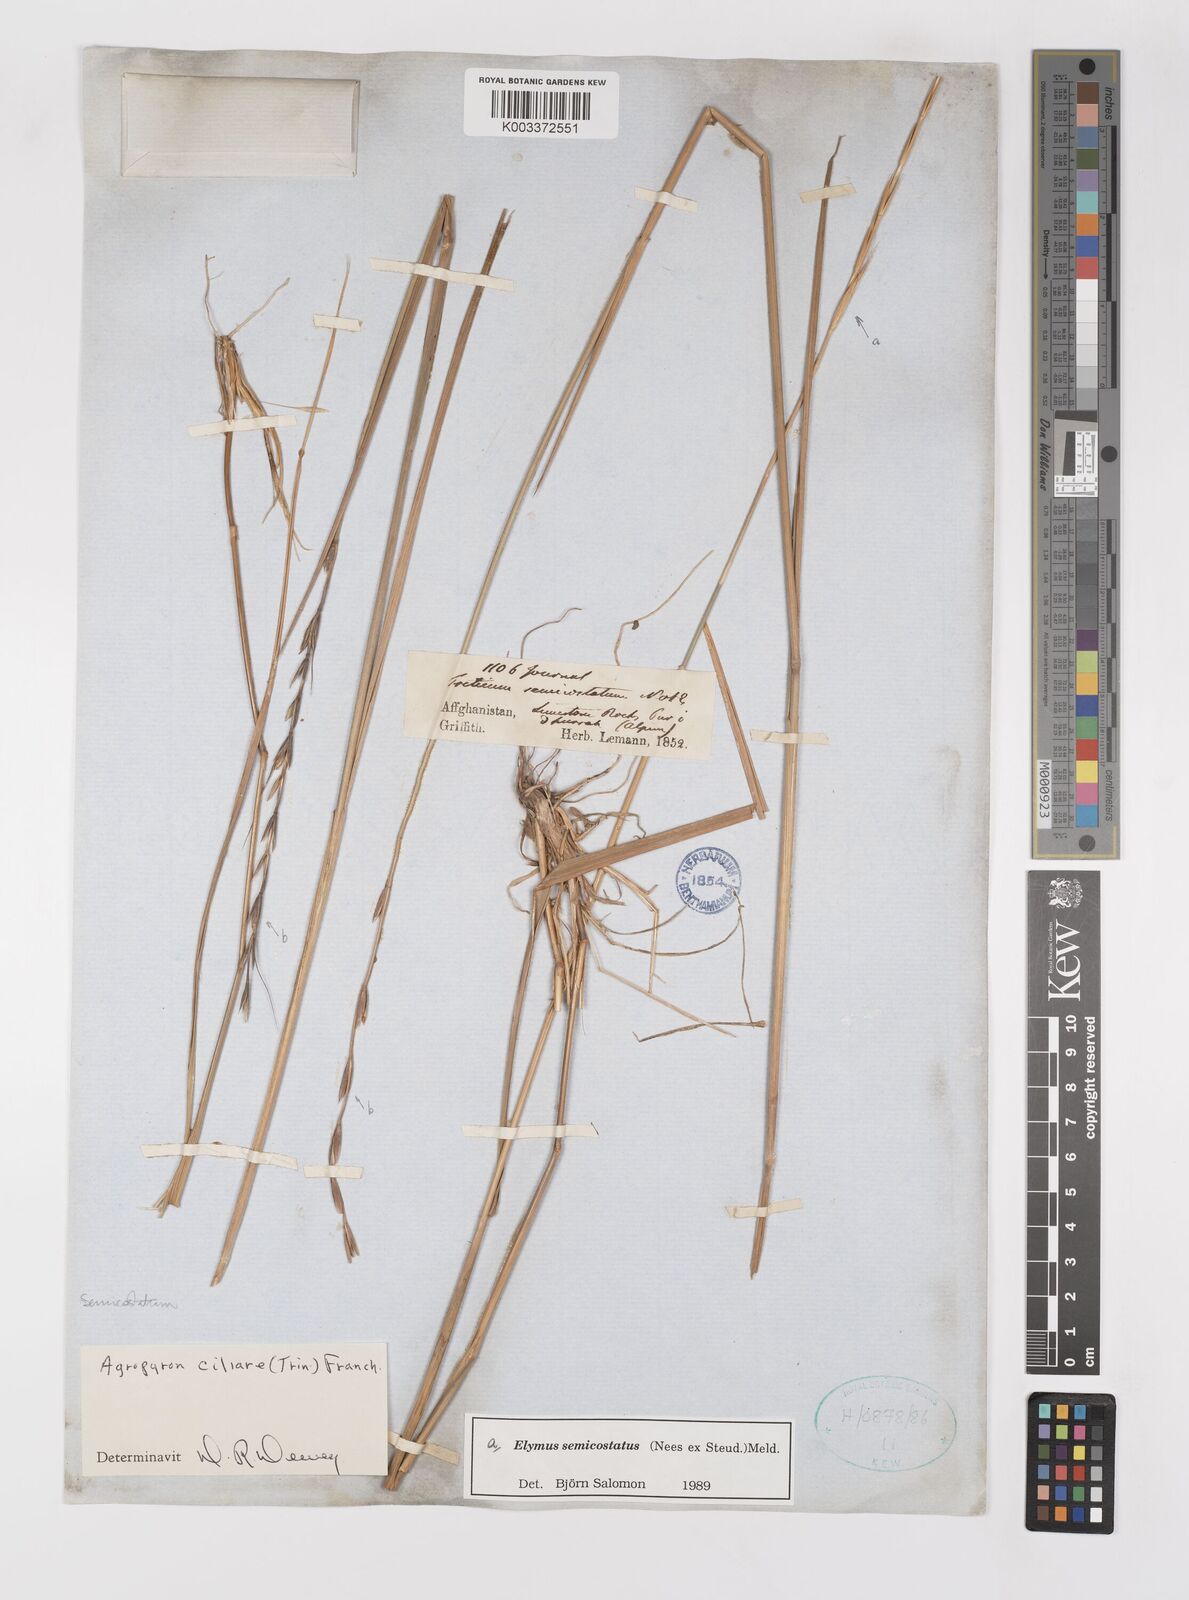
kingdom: Plantae
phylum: Tracheophyta
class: Liliopsida
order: Poales
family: Poaceae
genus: Elymus
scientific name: Elymus semicostatus
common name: Drooping wildrye
